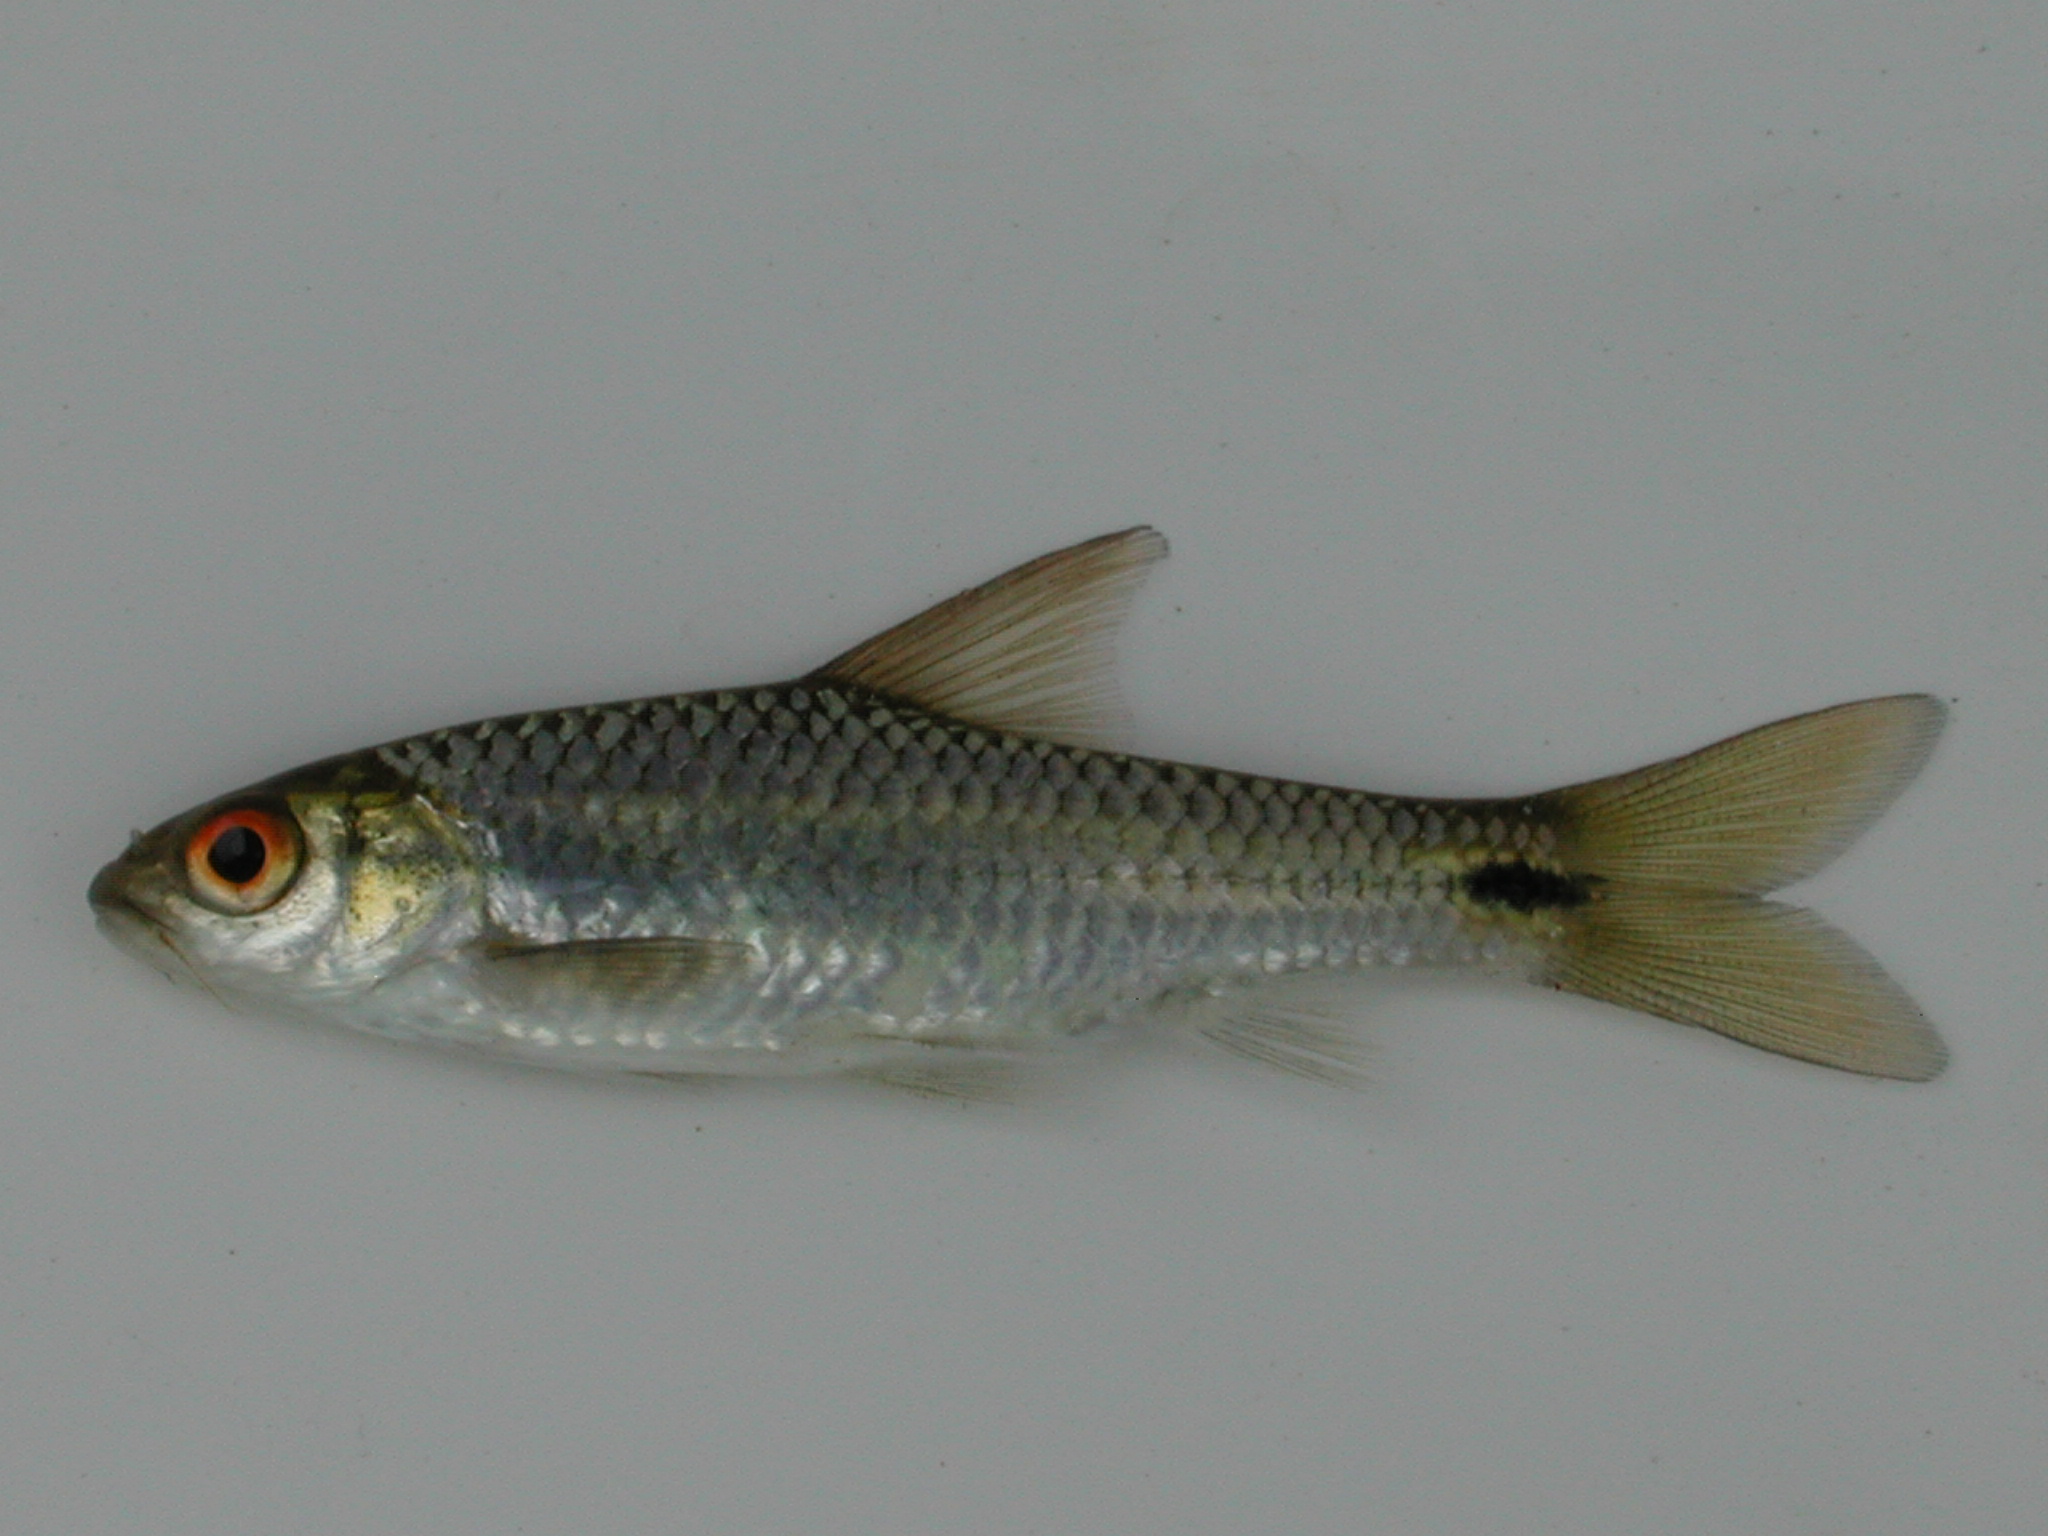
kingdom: Animalia
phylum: Chordata
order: Cypriniformes
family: Cyprinidae
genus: Enteromius
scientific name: Enteromius poechii
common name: Dashtail barb
